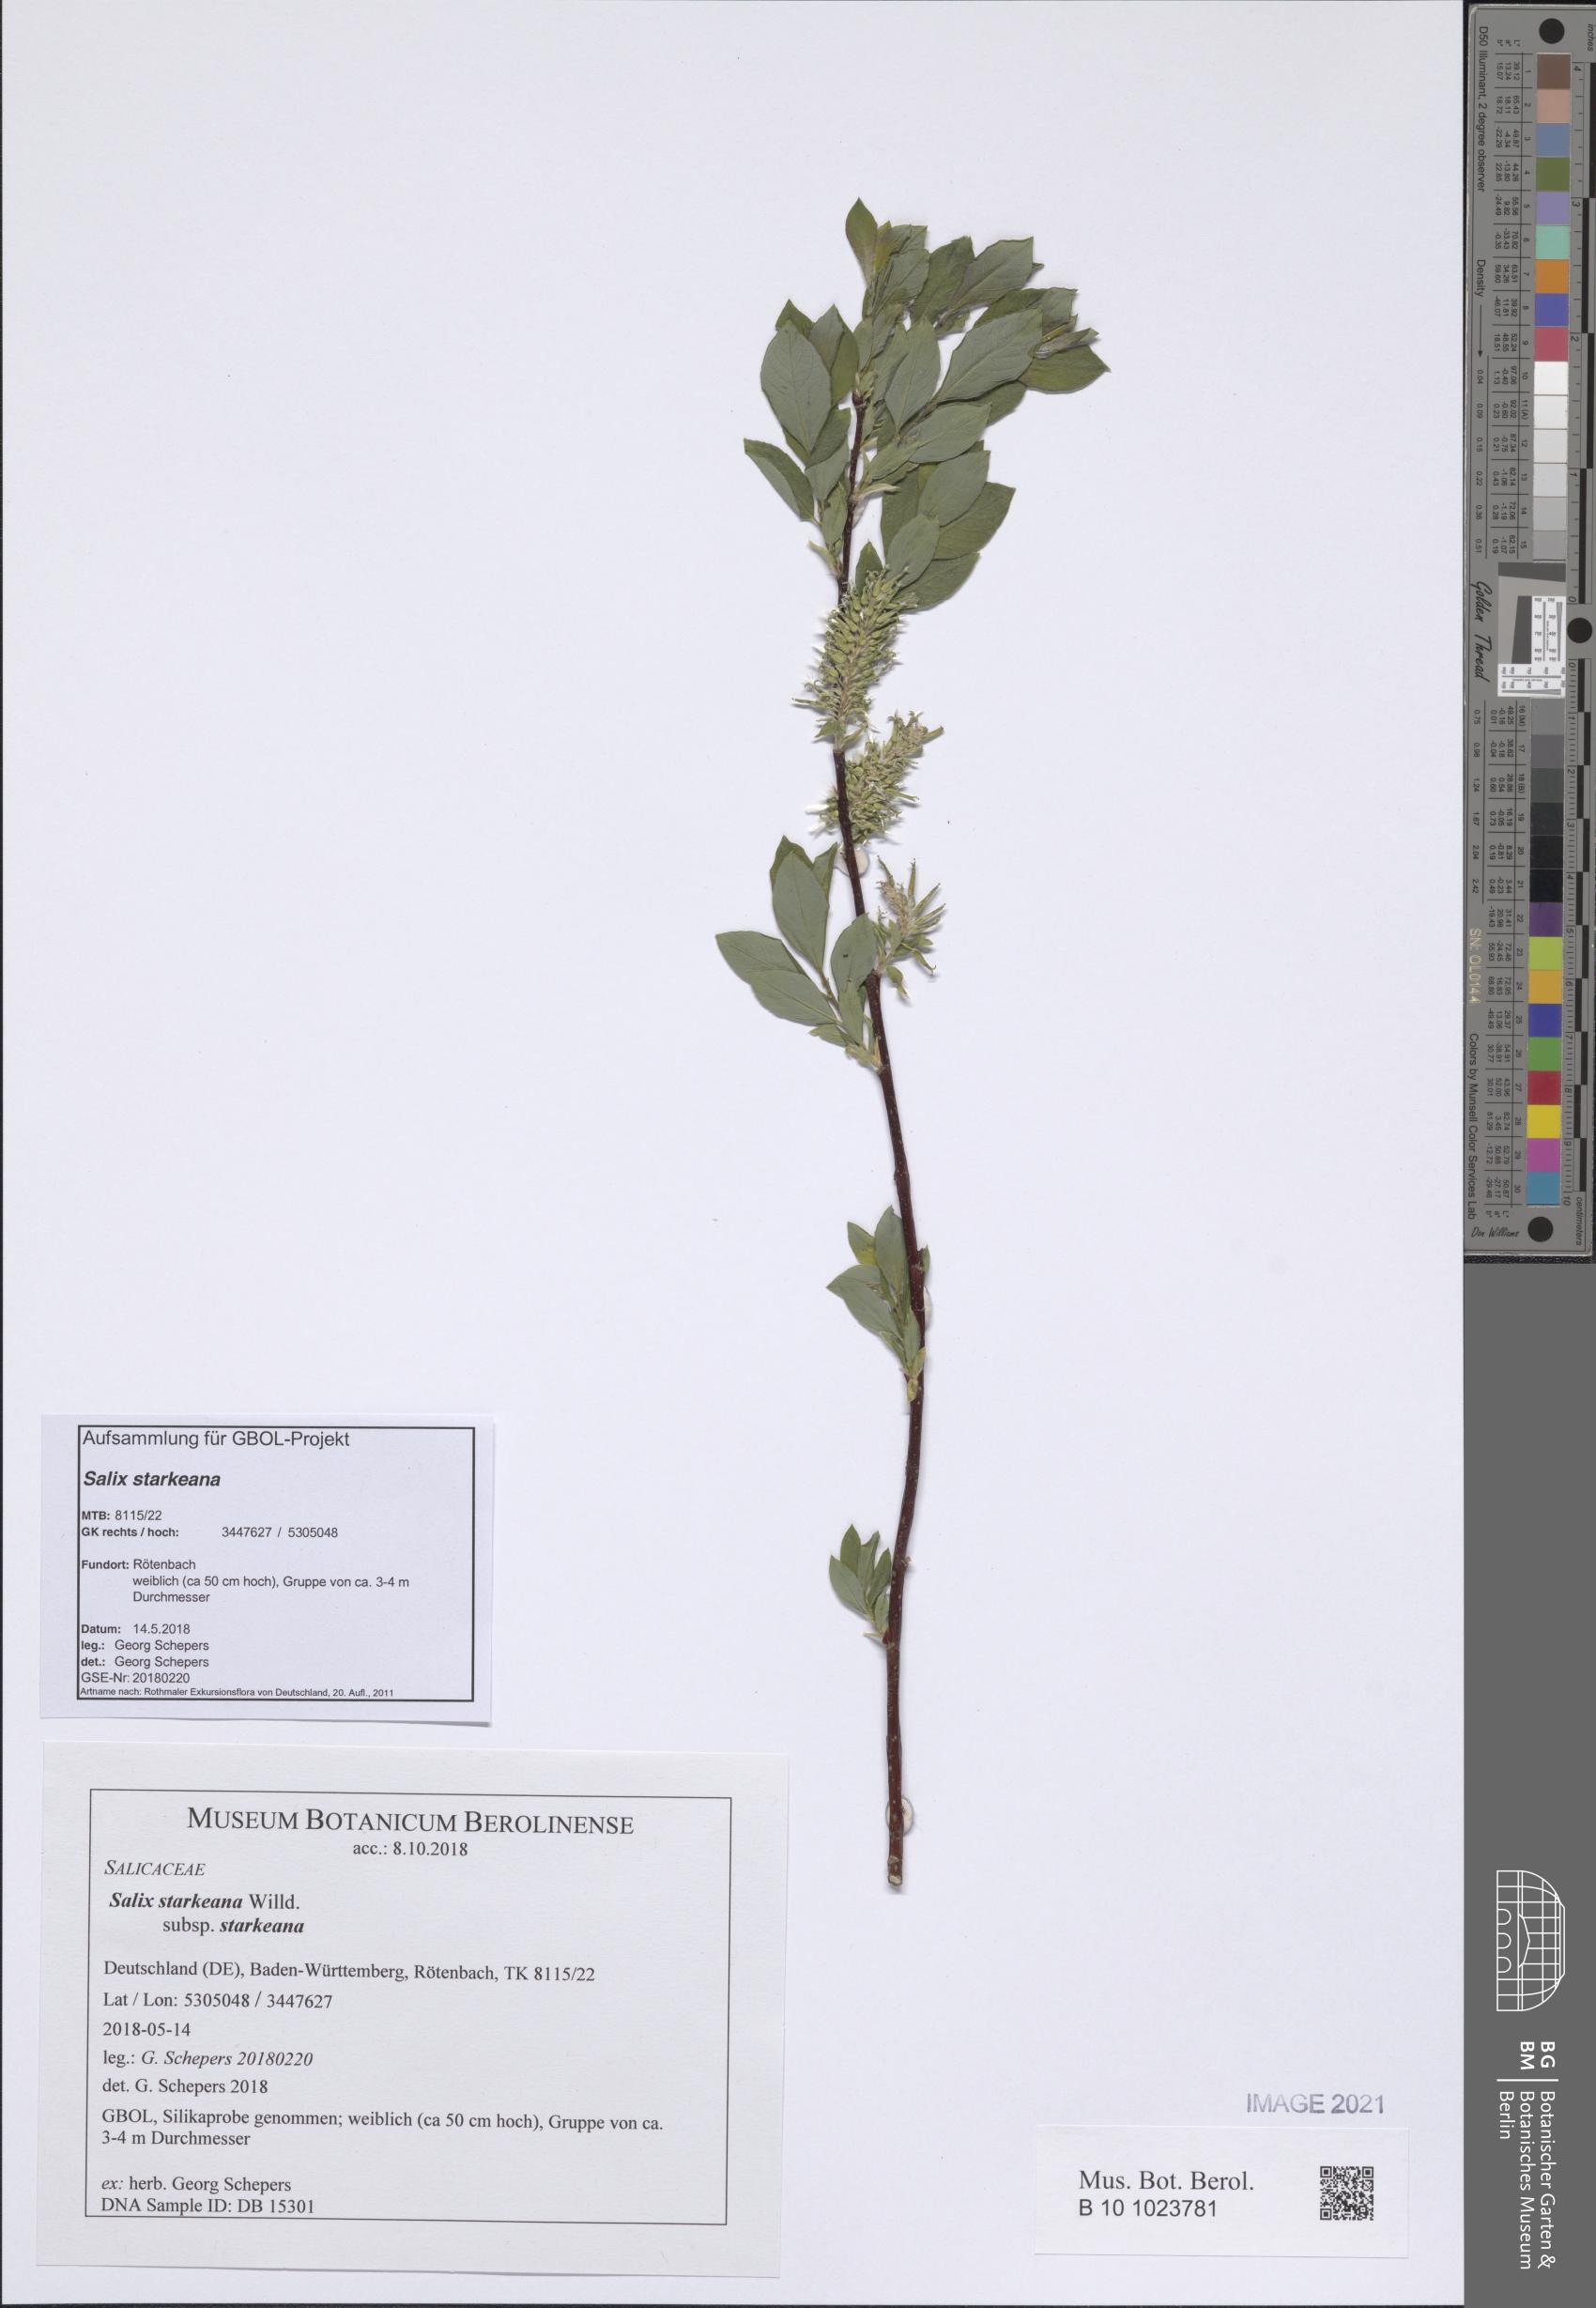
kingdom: Plantae
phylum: Tracheophyta
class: Magnoliopsida
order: Malpighiales
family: Salicaceae
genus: Salix
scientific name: Salix starkeana
